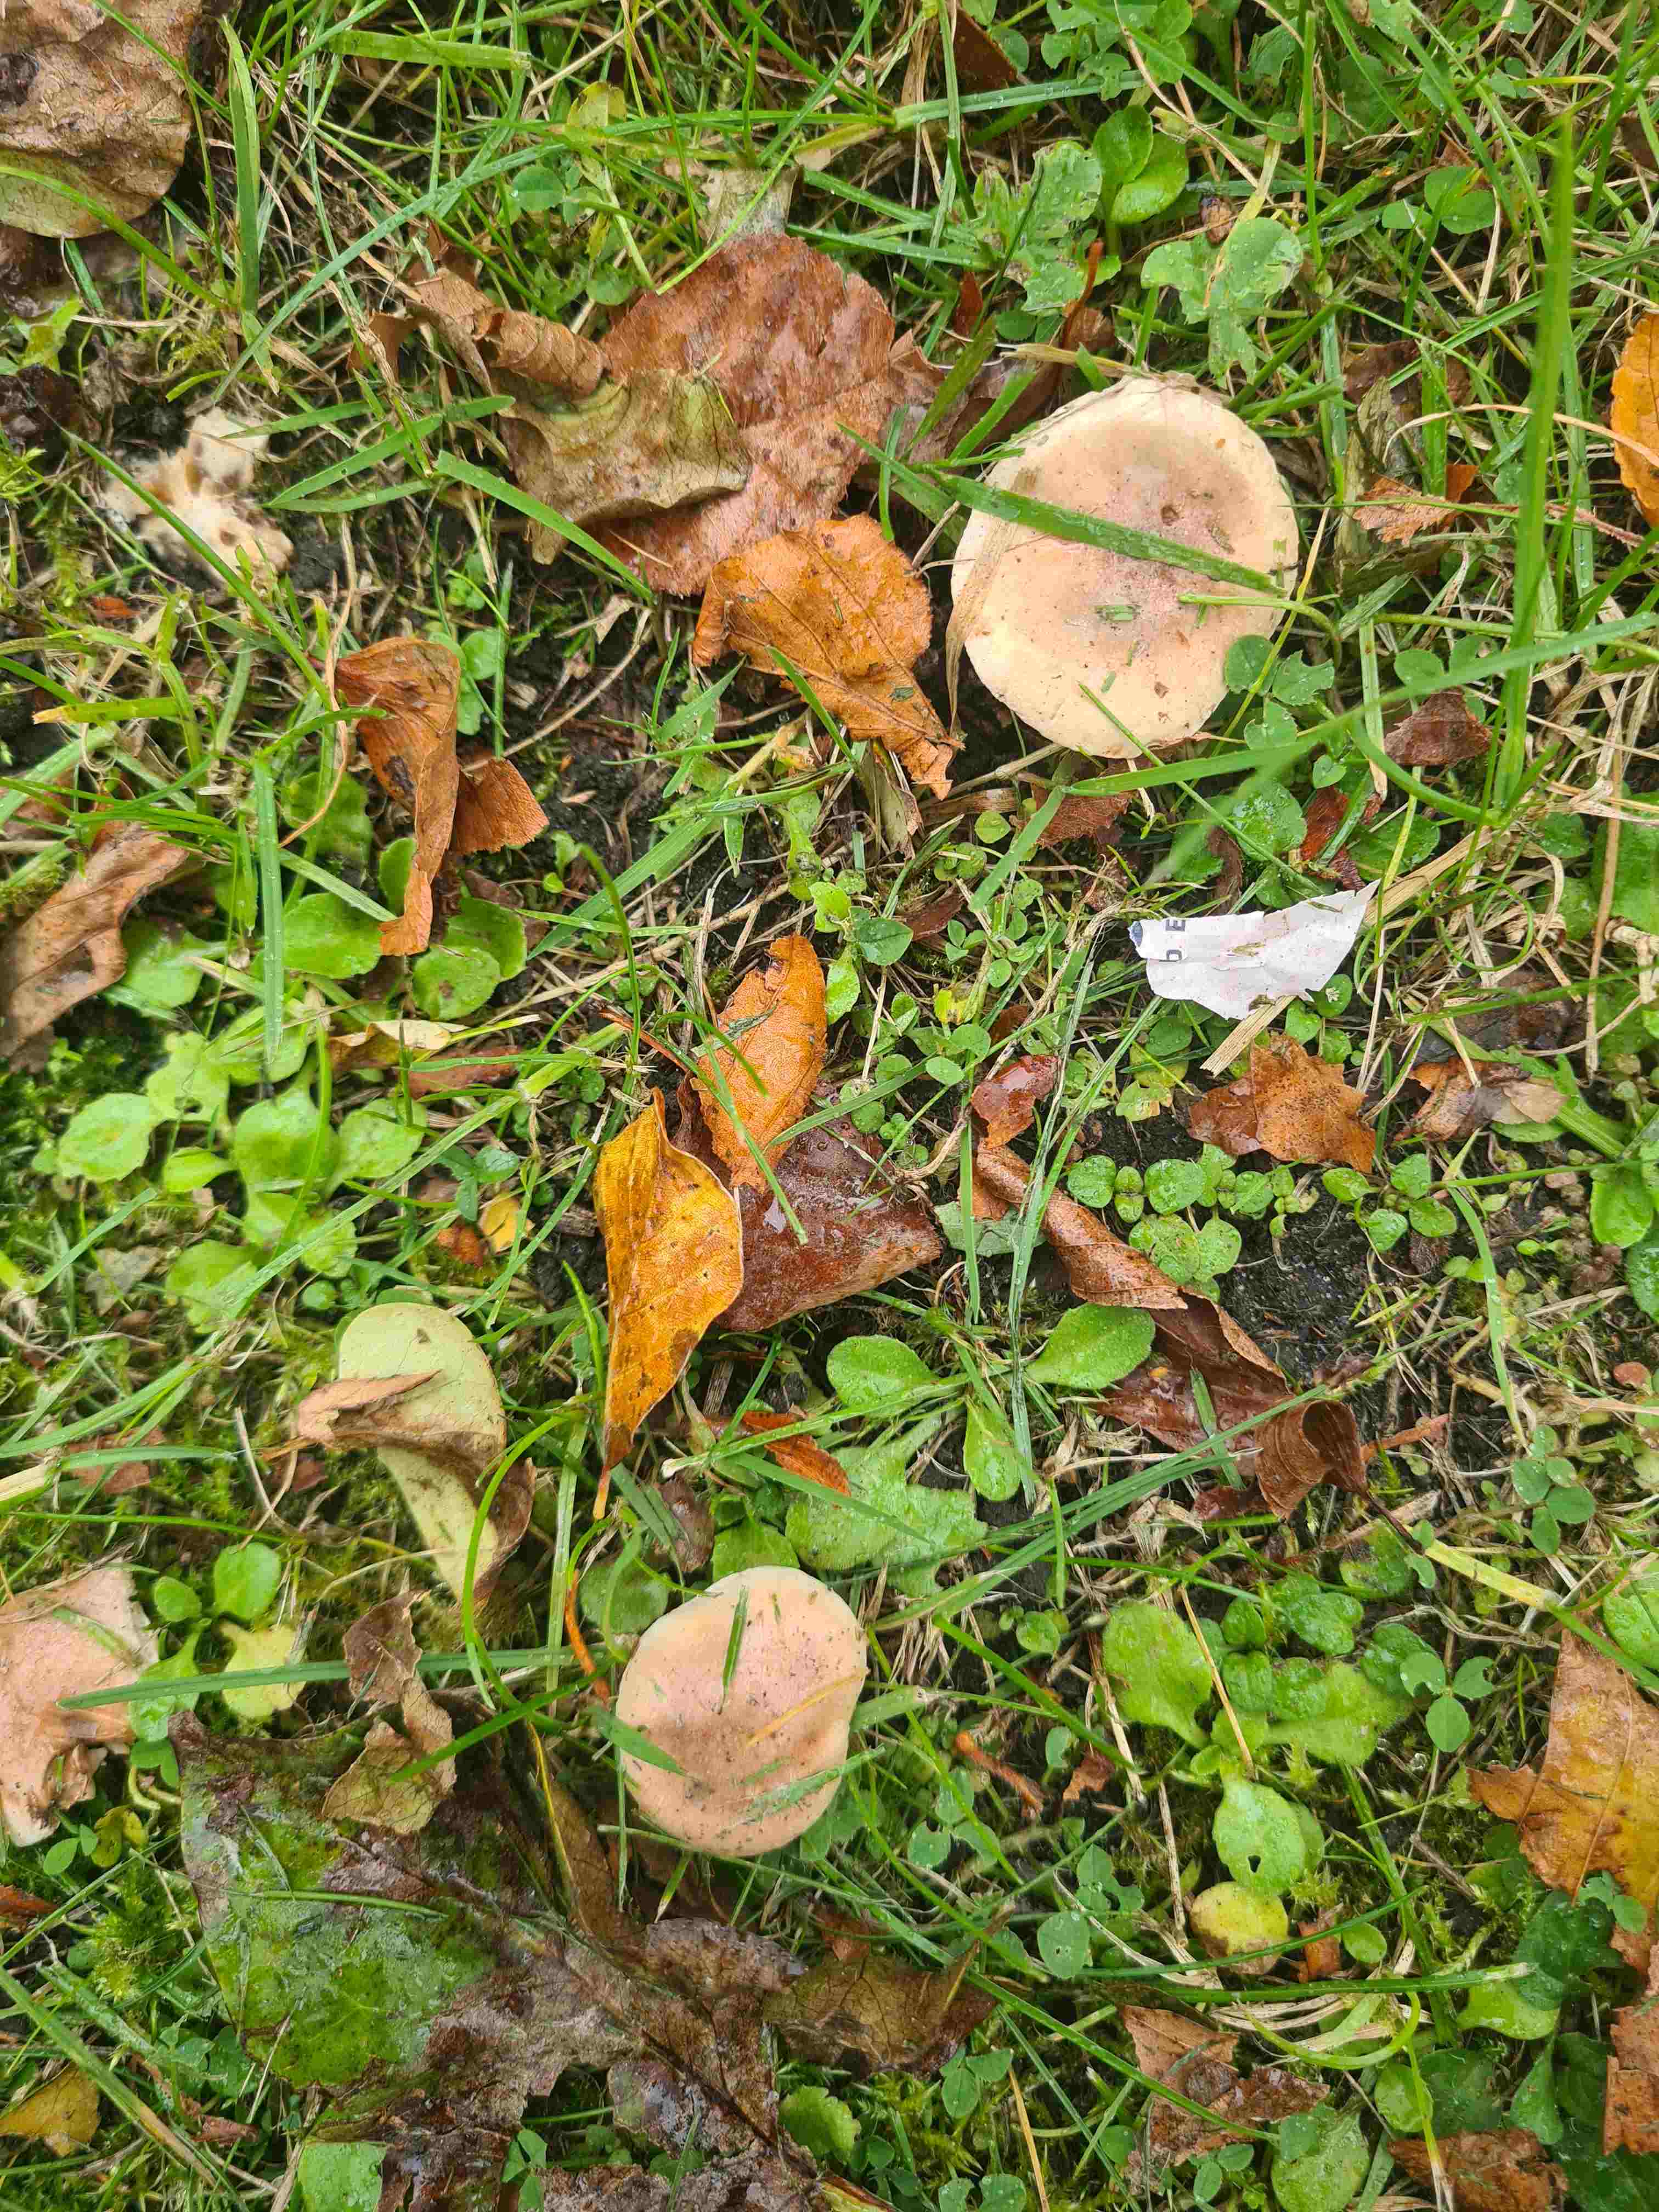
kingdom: Fungi
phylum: Basidiomycota
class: Agaricomycetes
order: Agaricales
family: Hymenogastraceae
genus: Hebeloma
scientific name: Hebeloma
